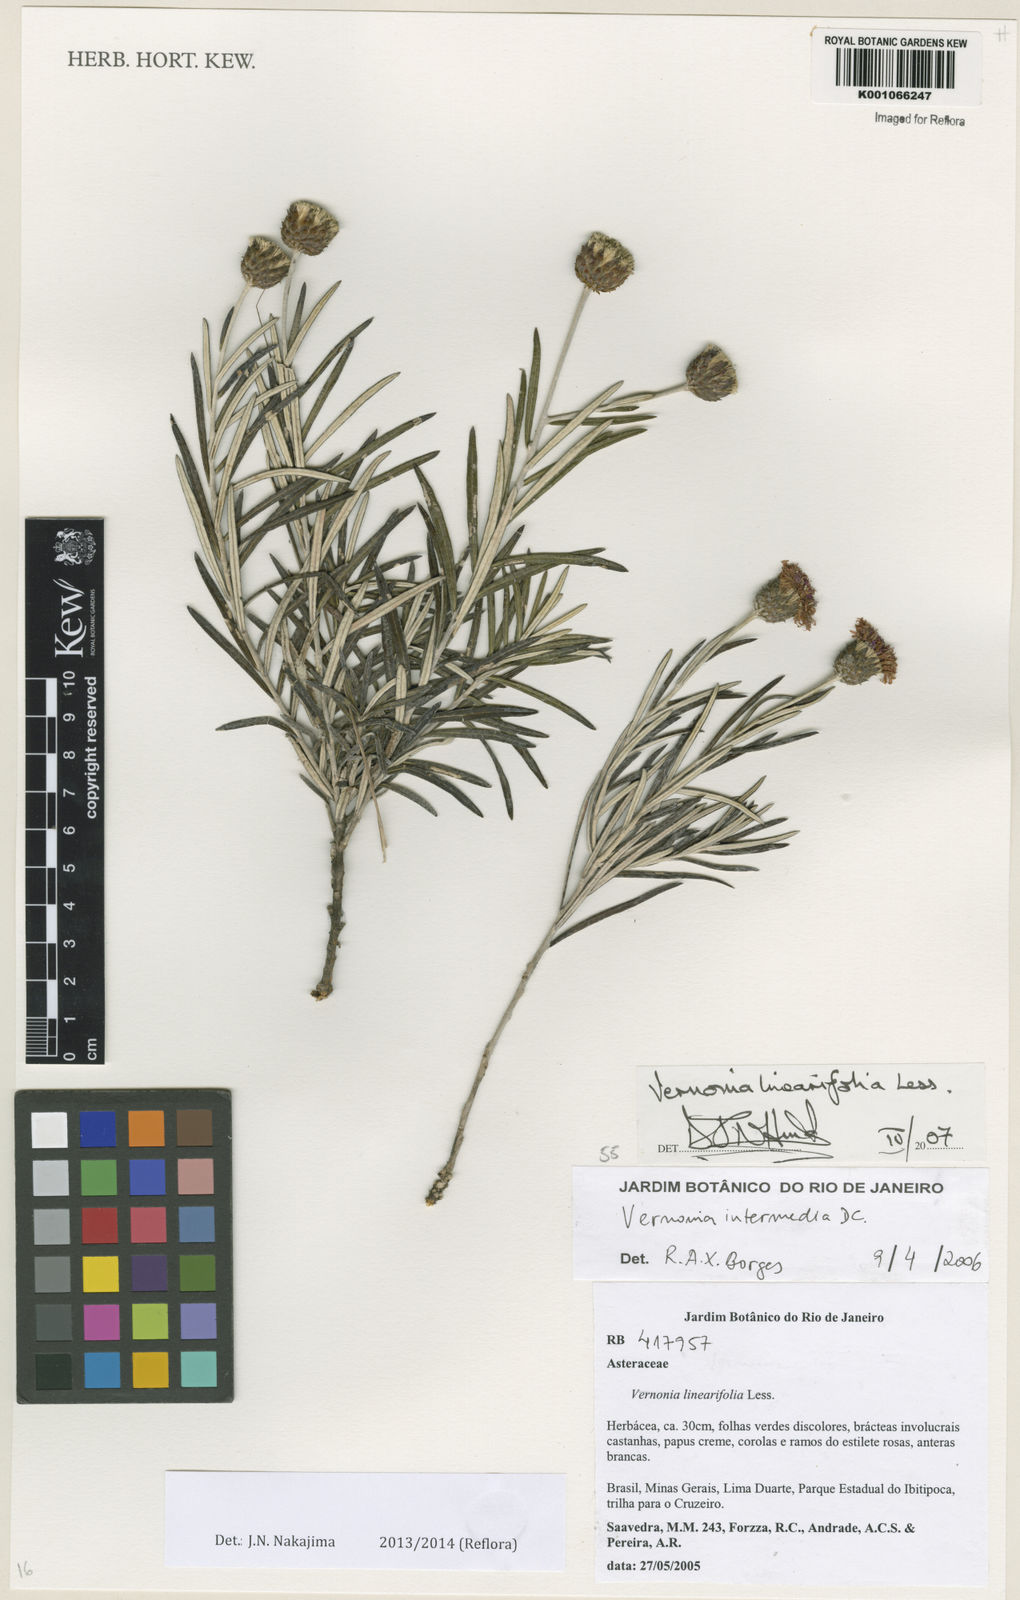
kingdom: Plantae
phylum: Tracheophyta
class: Magnoliopsida
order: Asterales
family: Asteraceae
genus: Lessingianthus
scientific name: Lessingianthus linearifolius
